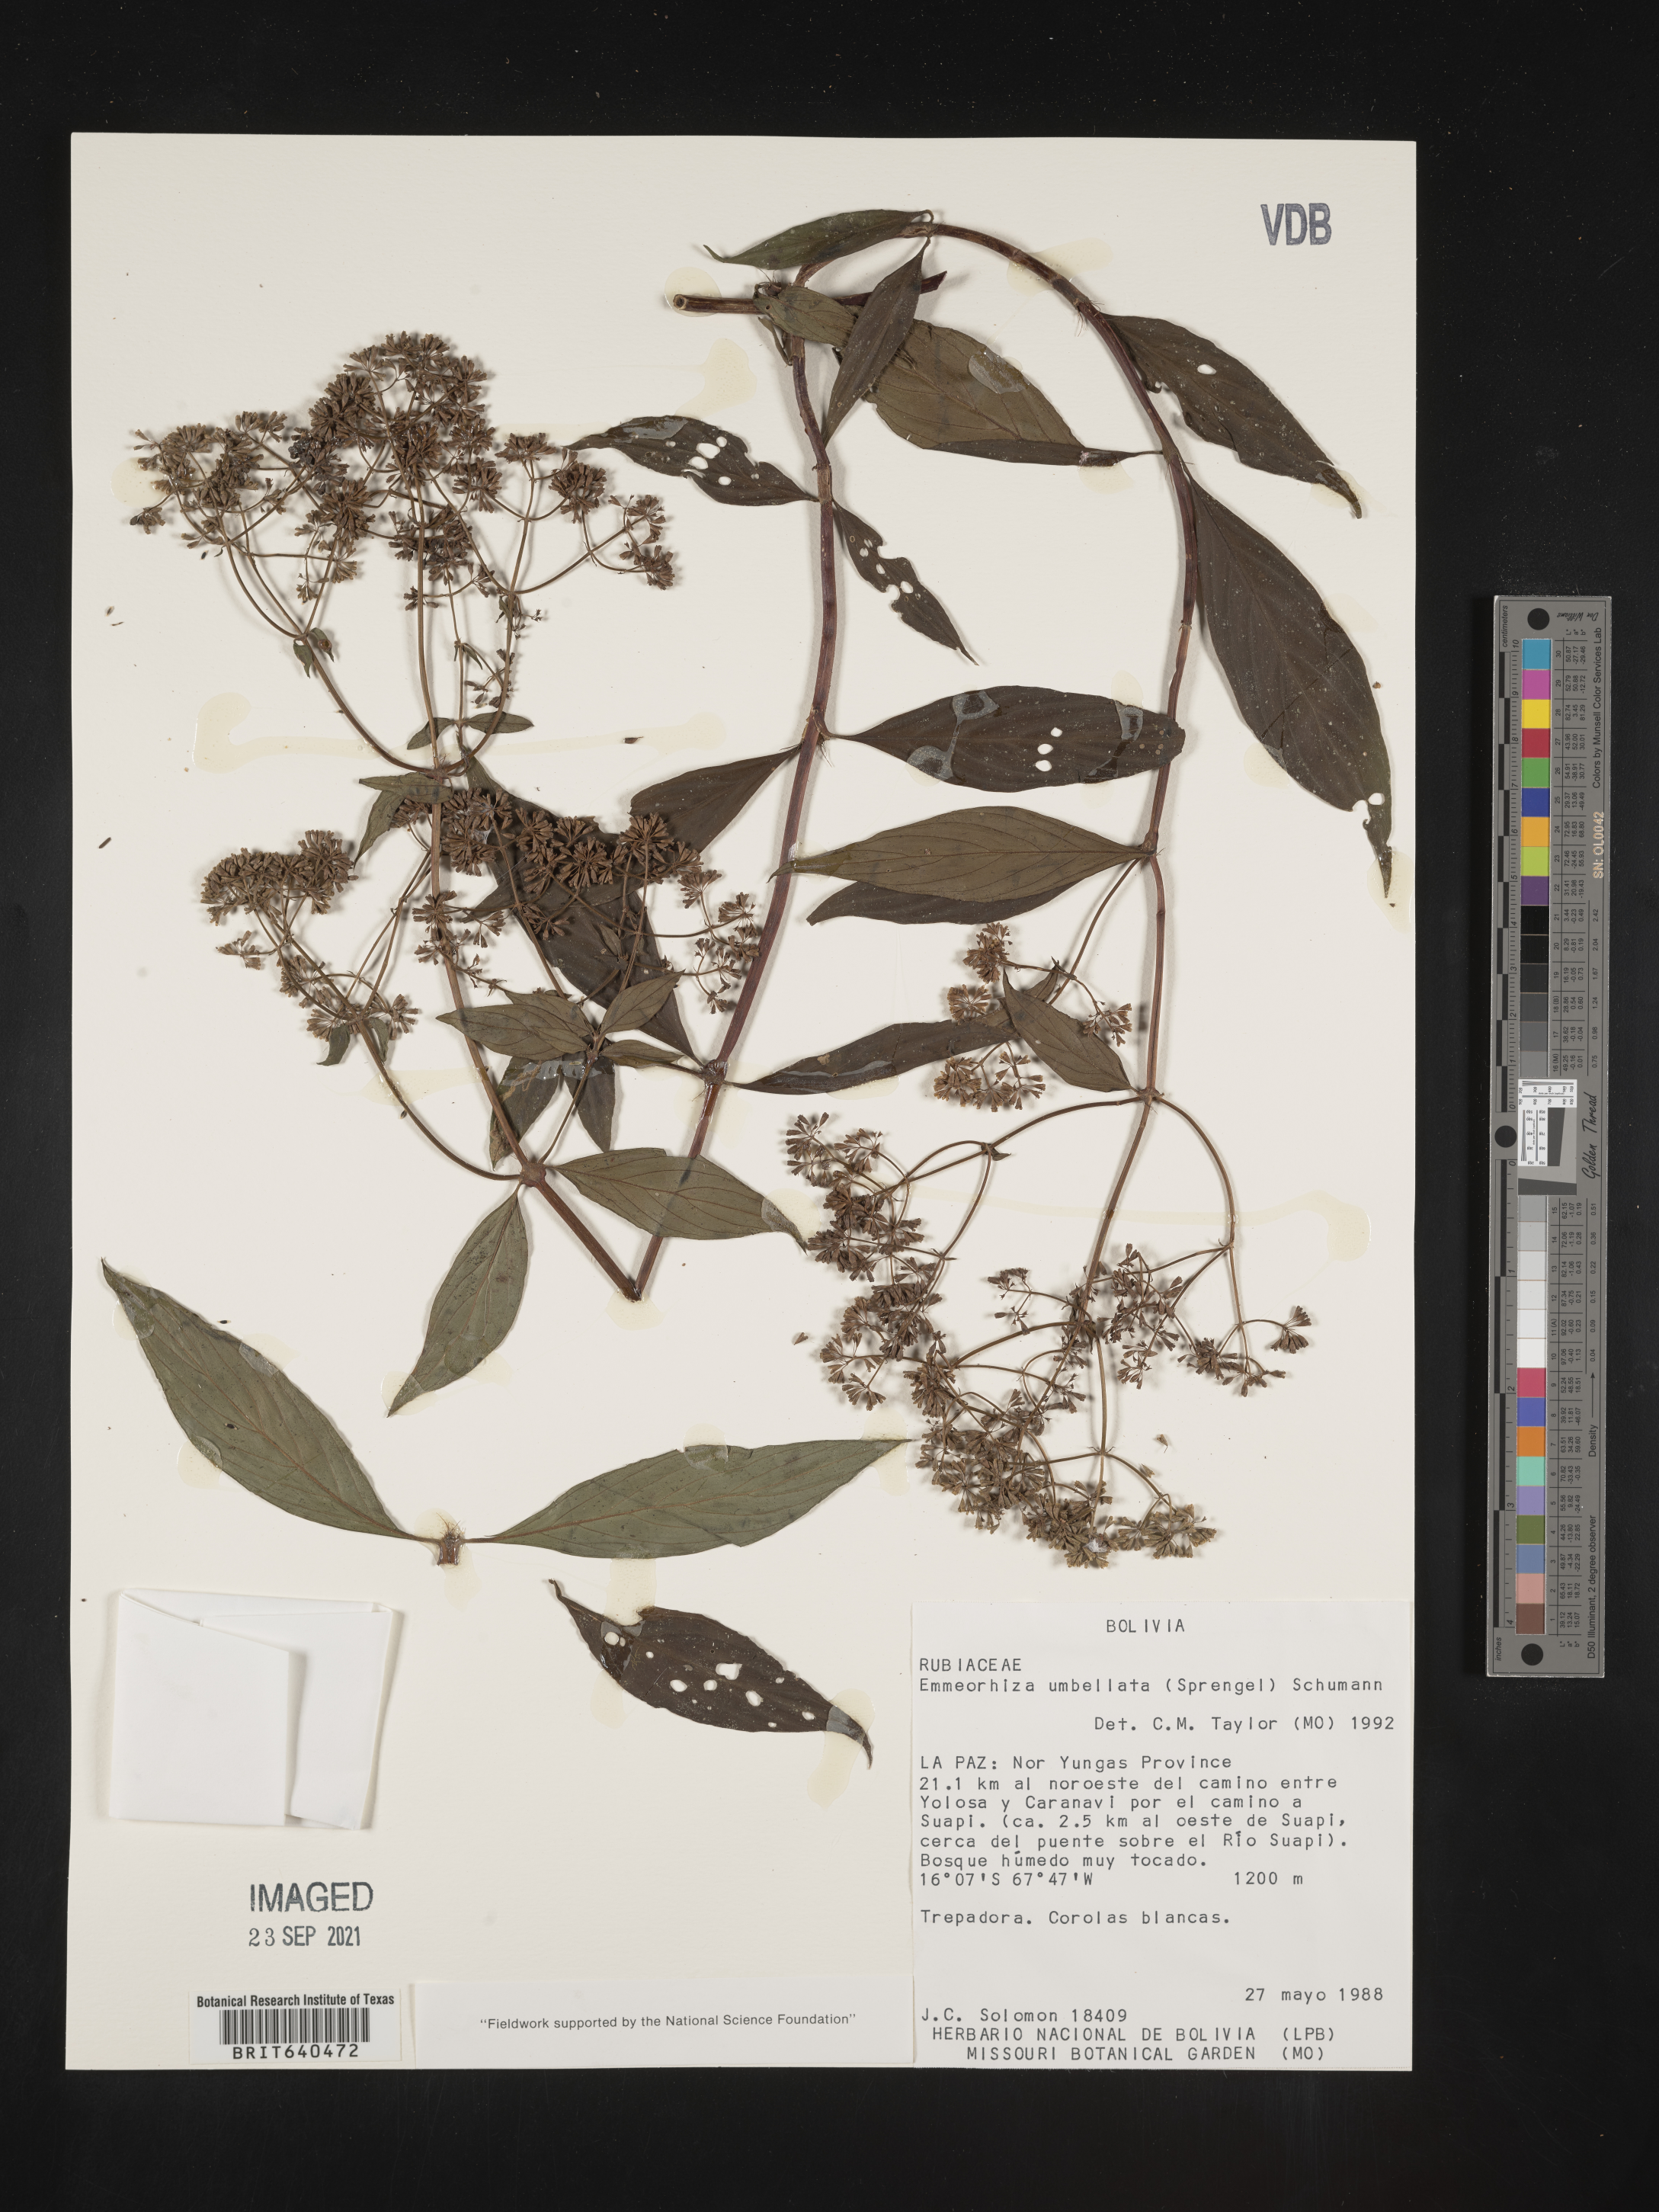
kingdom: Plantae
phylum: Tracheophyta
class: Magnoliopsida
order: Gentianales
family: Rubiaceae
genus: Emmeorhiza
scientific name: Emmeorhiza
